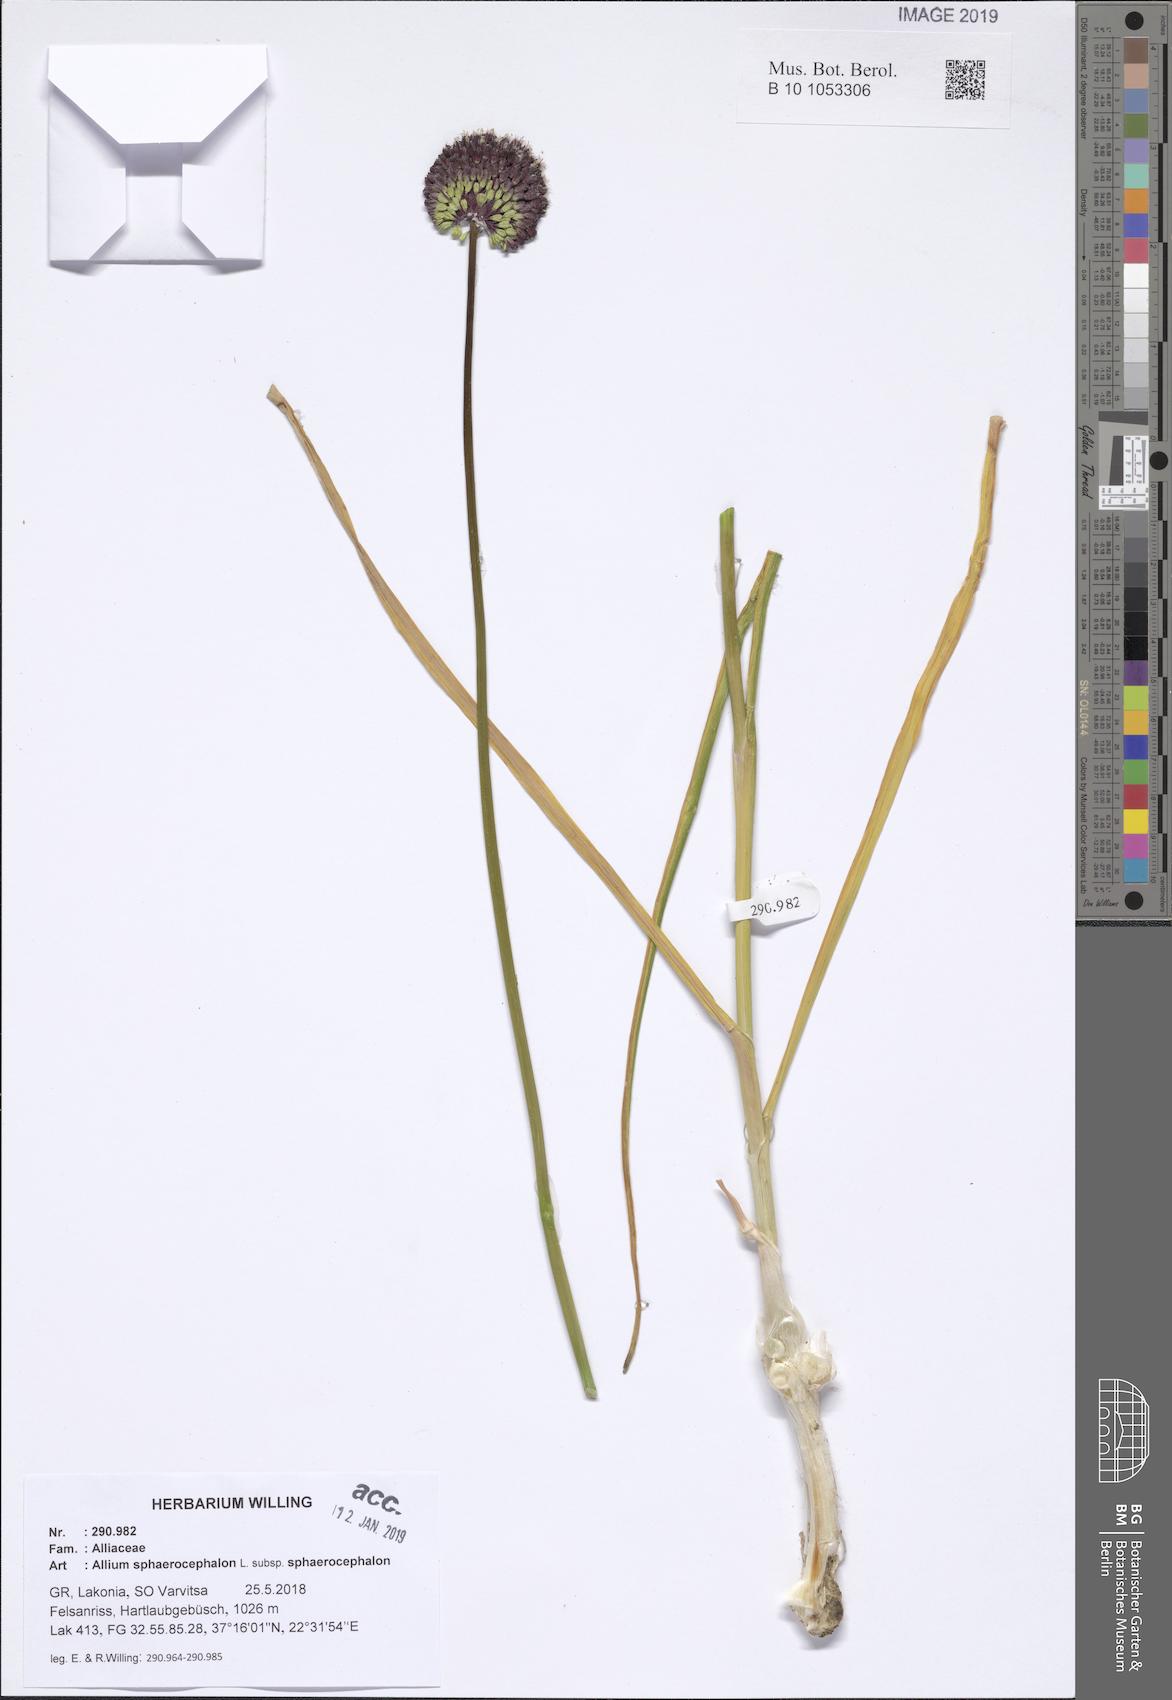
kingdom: Plantae
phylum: Tracheophyta
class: Liliopsida
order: Asparagales
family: Amaryllidaceae
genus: Allium
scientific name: Allium sphaerocephalon
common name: Round-headed leek
